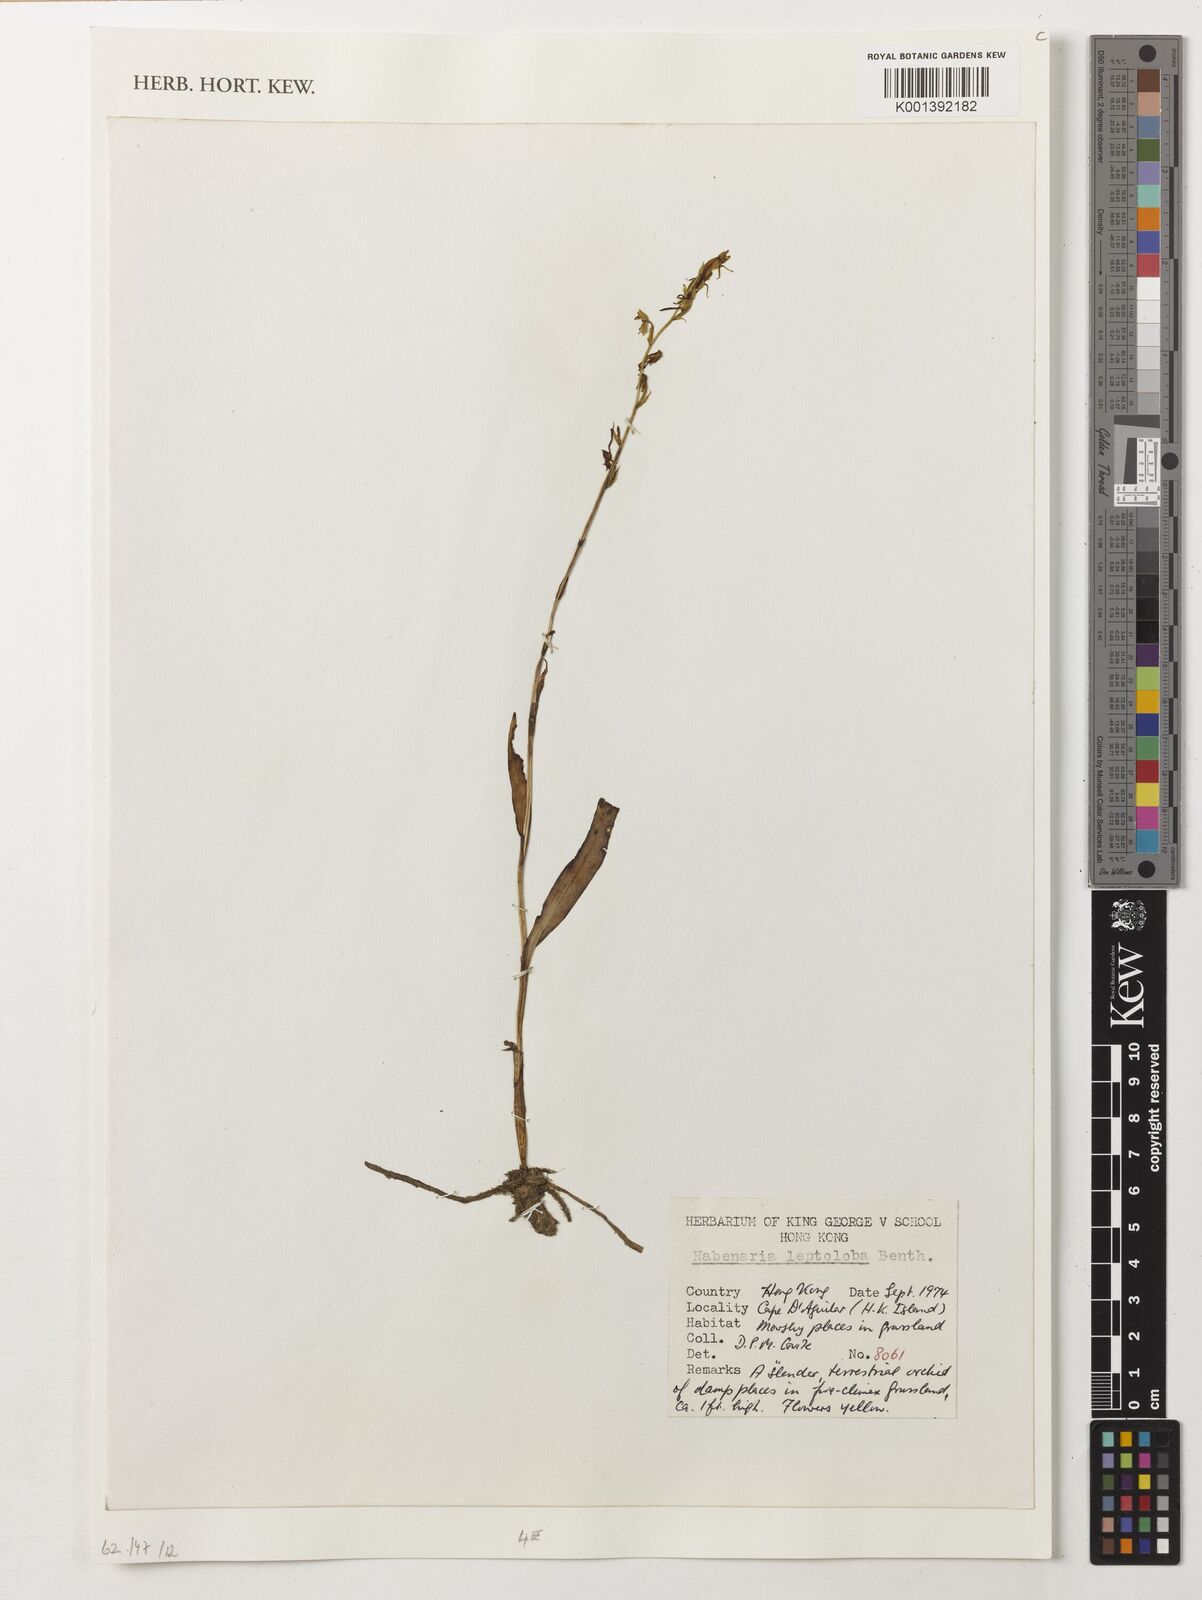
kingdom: Plantae
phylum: Tracheophyta
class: Liliopsida
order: Asparagales
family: Orchidaceae
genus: Habenaria
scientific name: Habenaria leptoloba
